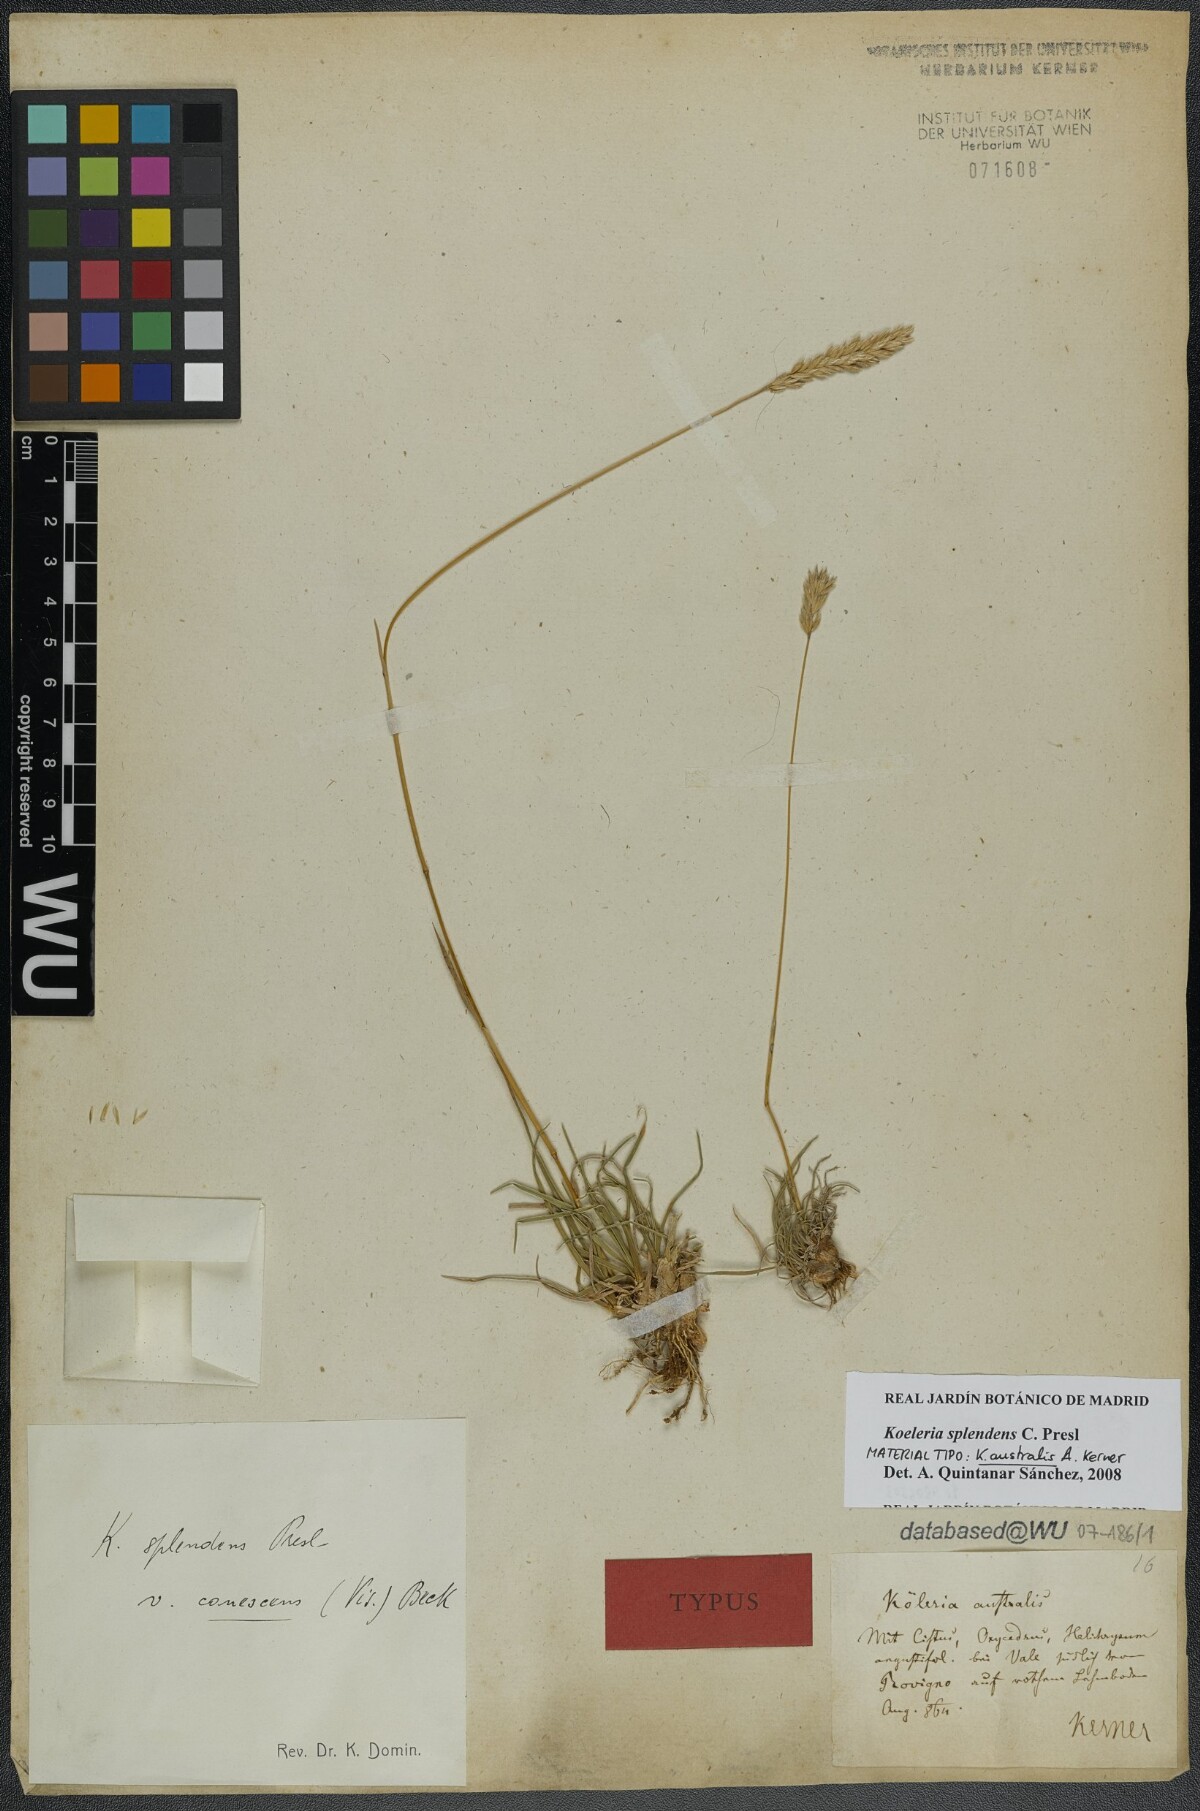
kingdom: Plantae
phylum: Tracheophyta
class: Liliopsida
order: Poales
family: Poaceae
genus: Koeleria
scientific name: Koeleria splendens
